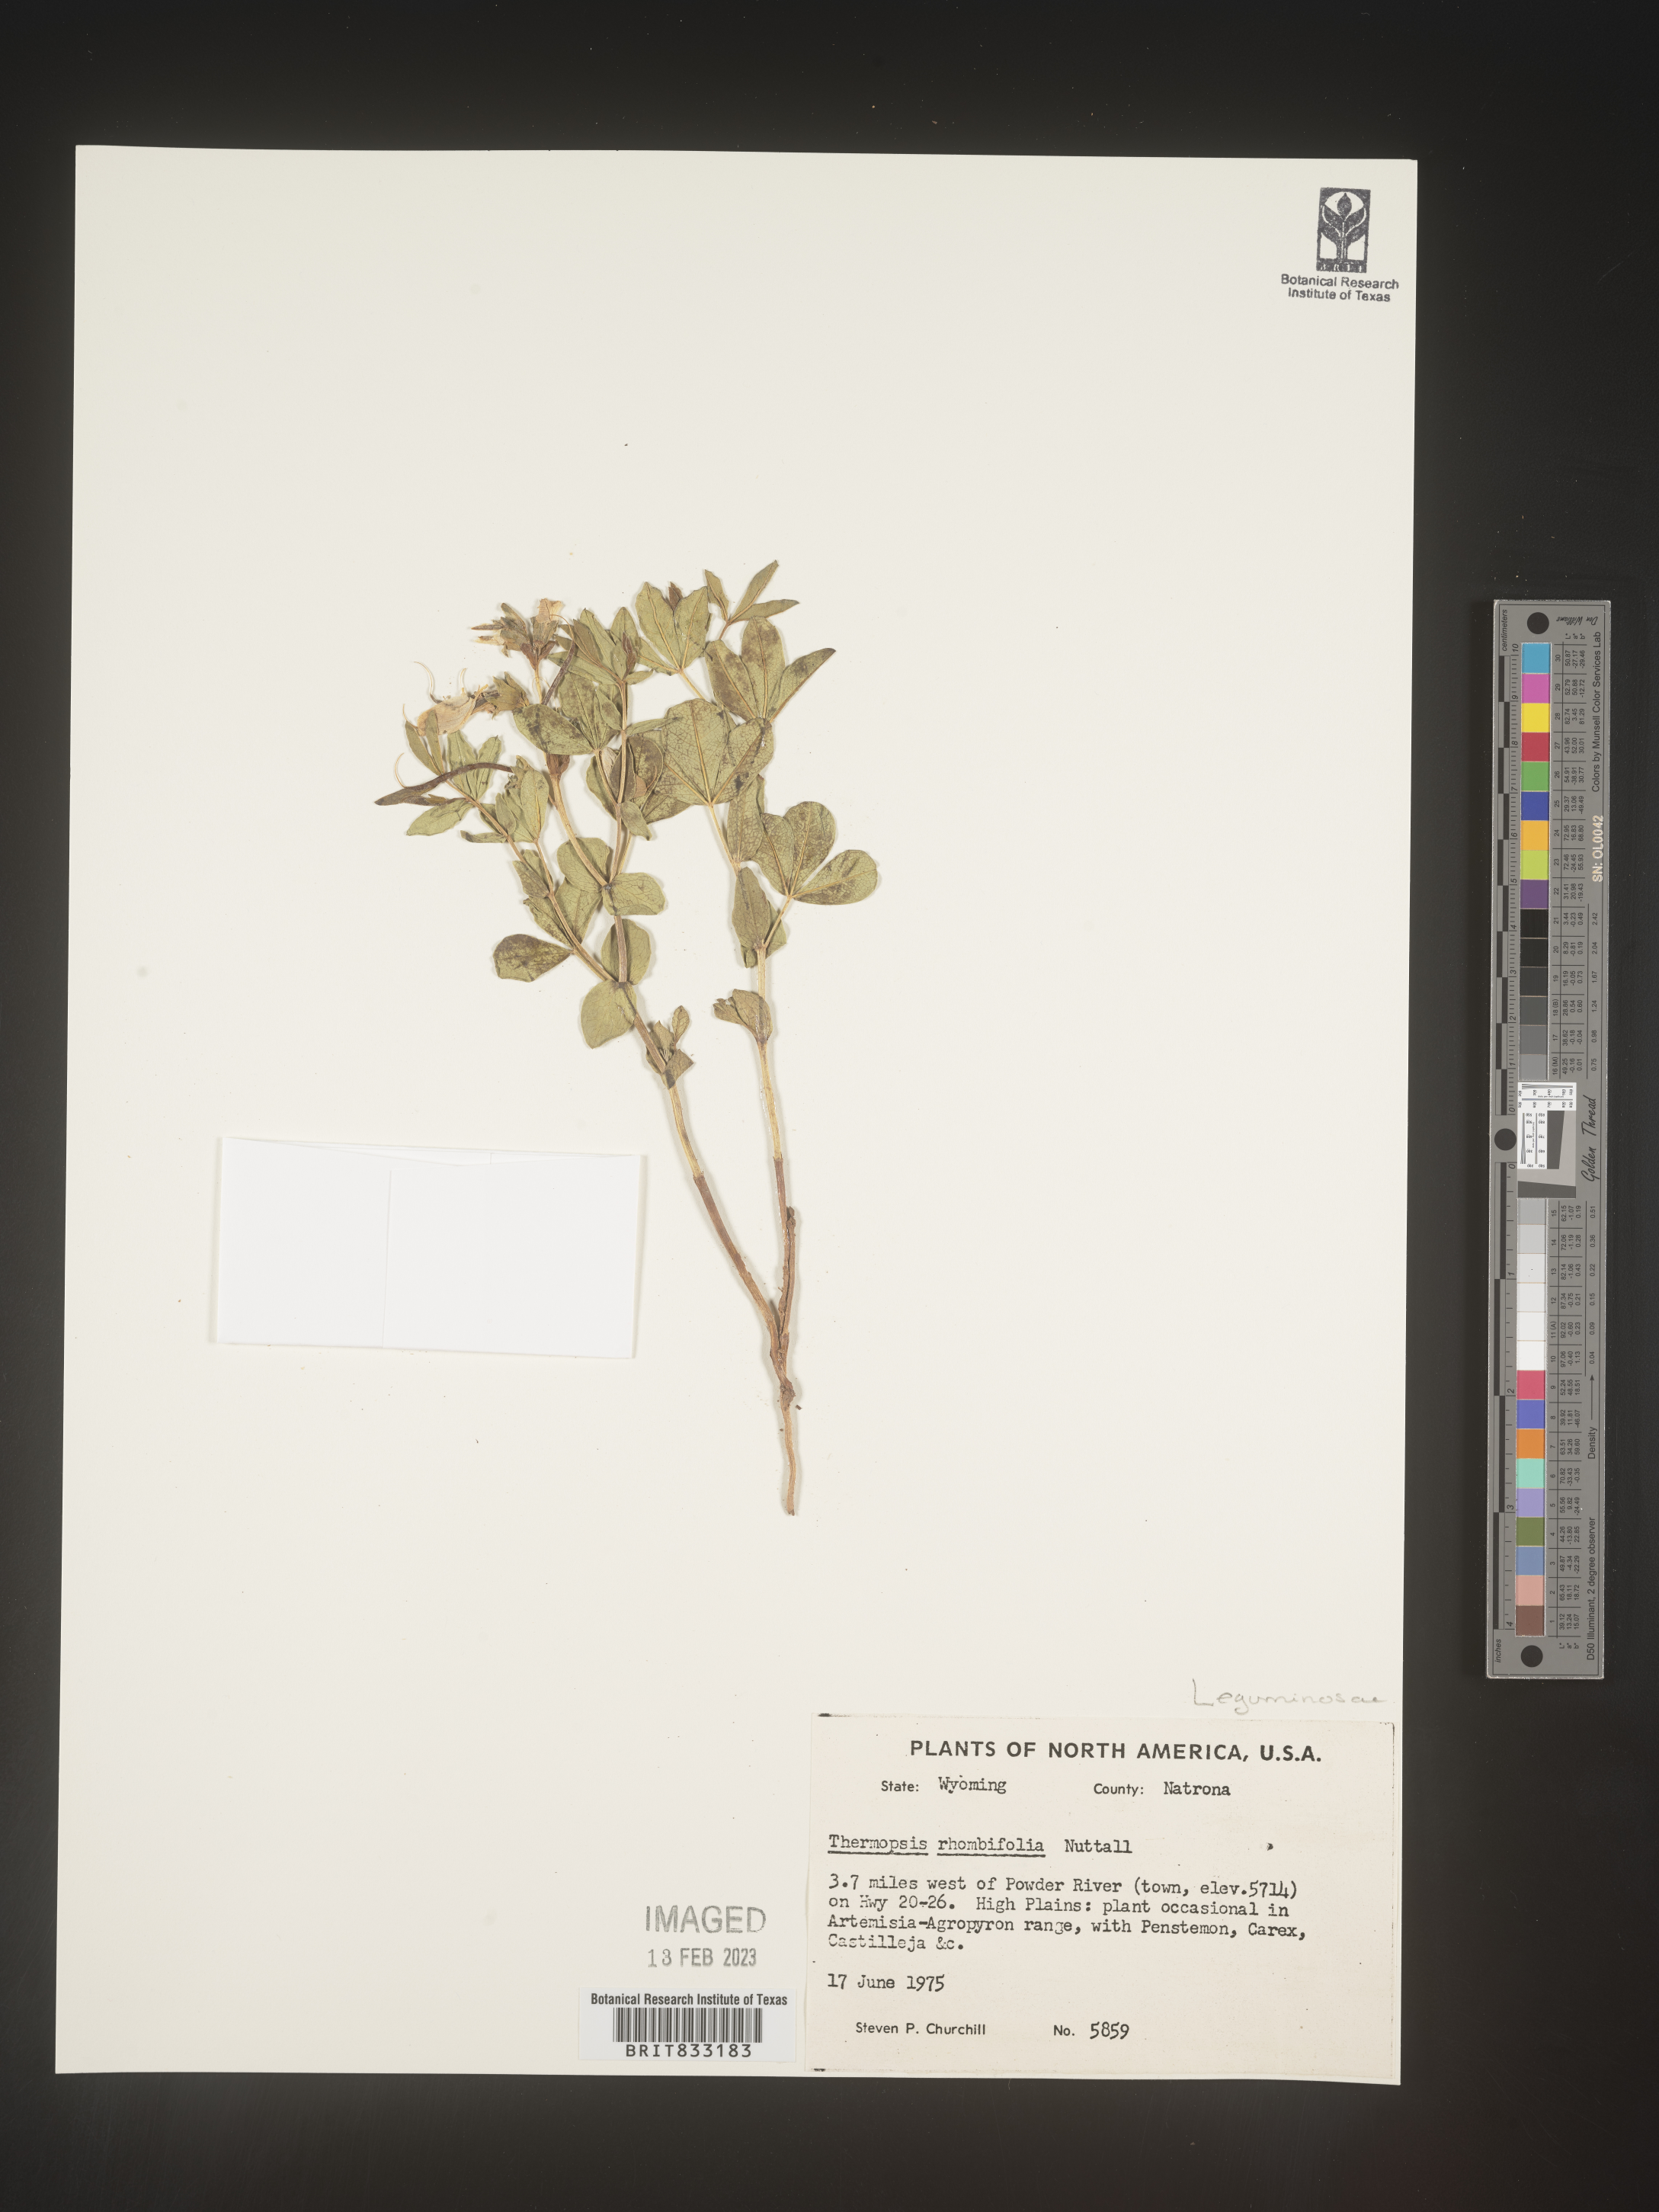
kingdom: Plantae
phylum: Tracheophyta
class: Magnoliopsida
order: Fabales
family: Fabaceae
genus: Thermopsis
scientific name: Thermopsis rhombifolia
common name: Circle-pod-pea
